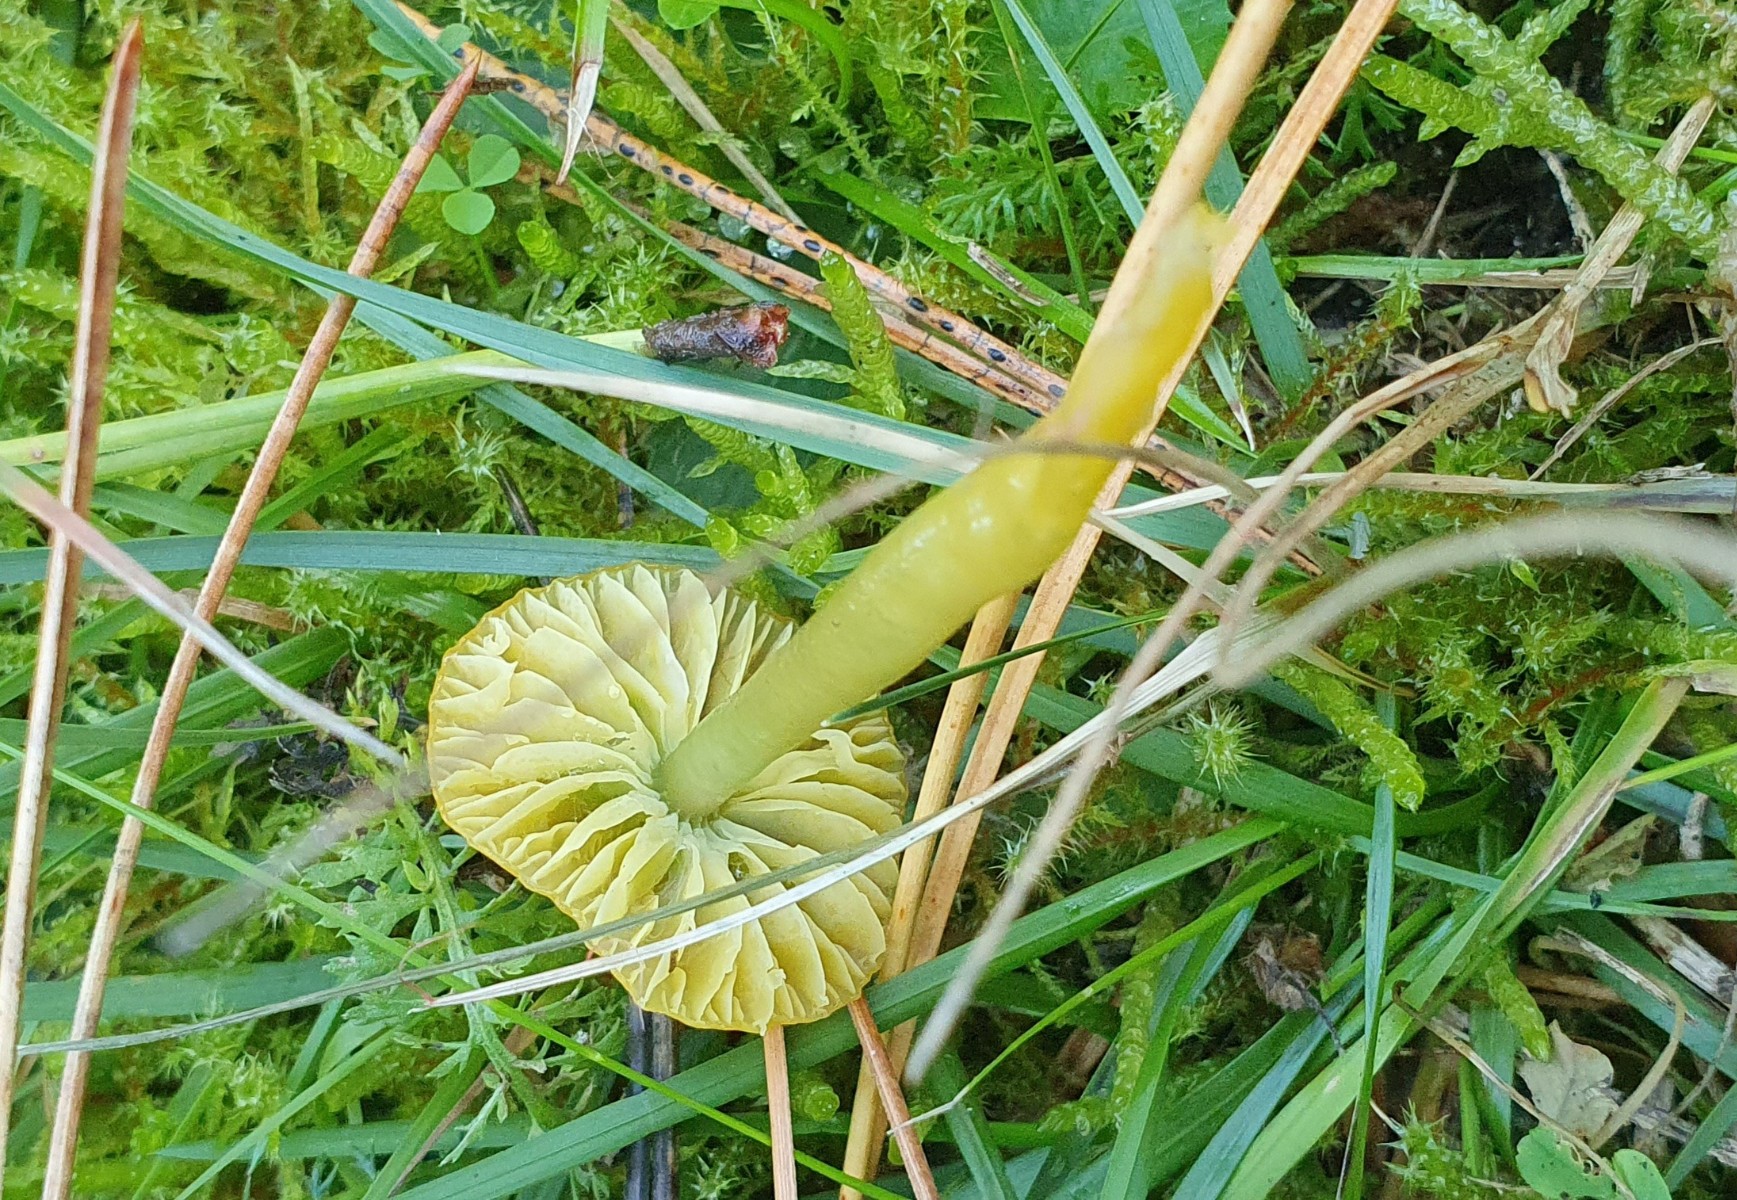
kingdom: Fungi
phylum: Basidiomycota
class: Agaricomycetes
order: Agaricales
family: Hygrophoraceae
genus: Gliophorus
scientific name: Gliophorus psittacinus
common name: papegøje-vokshat
